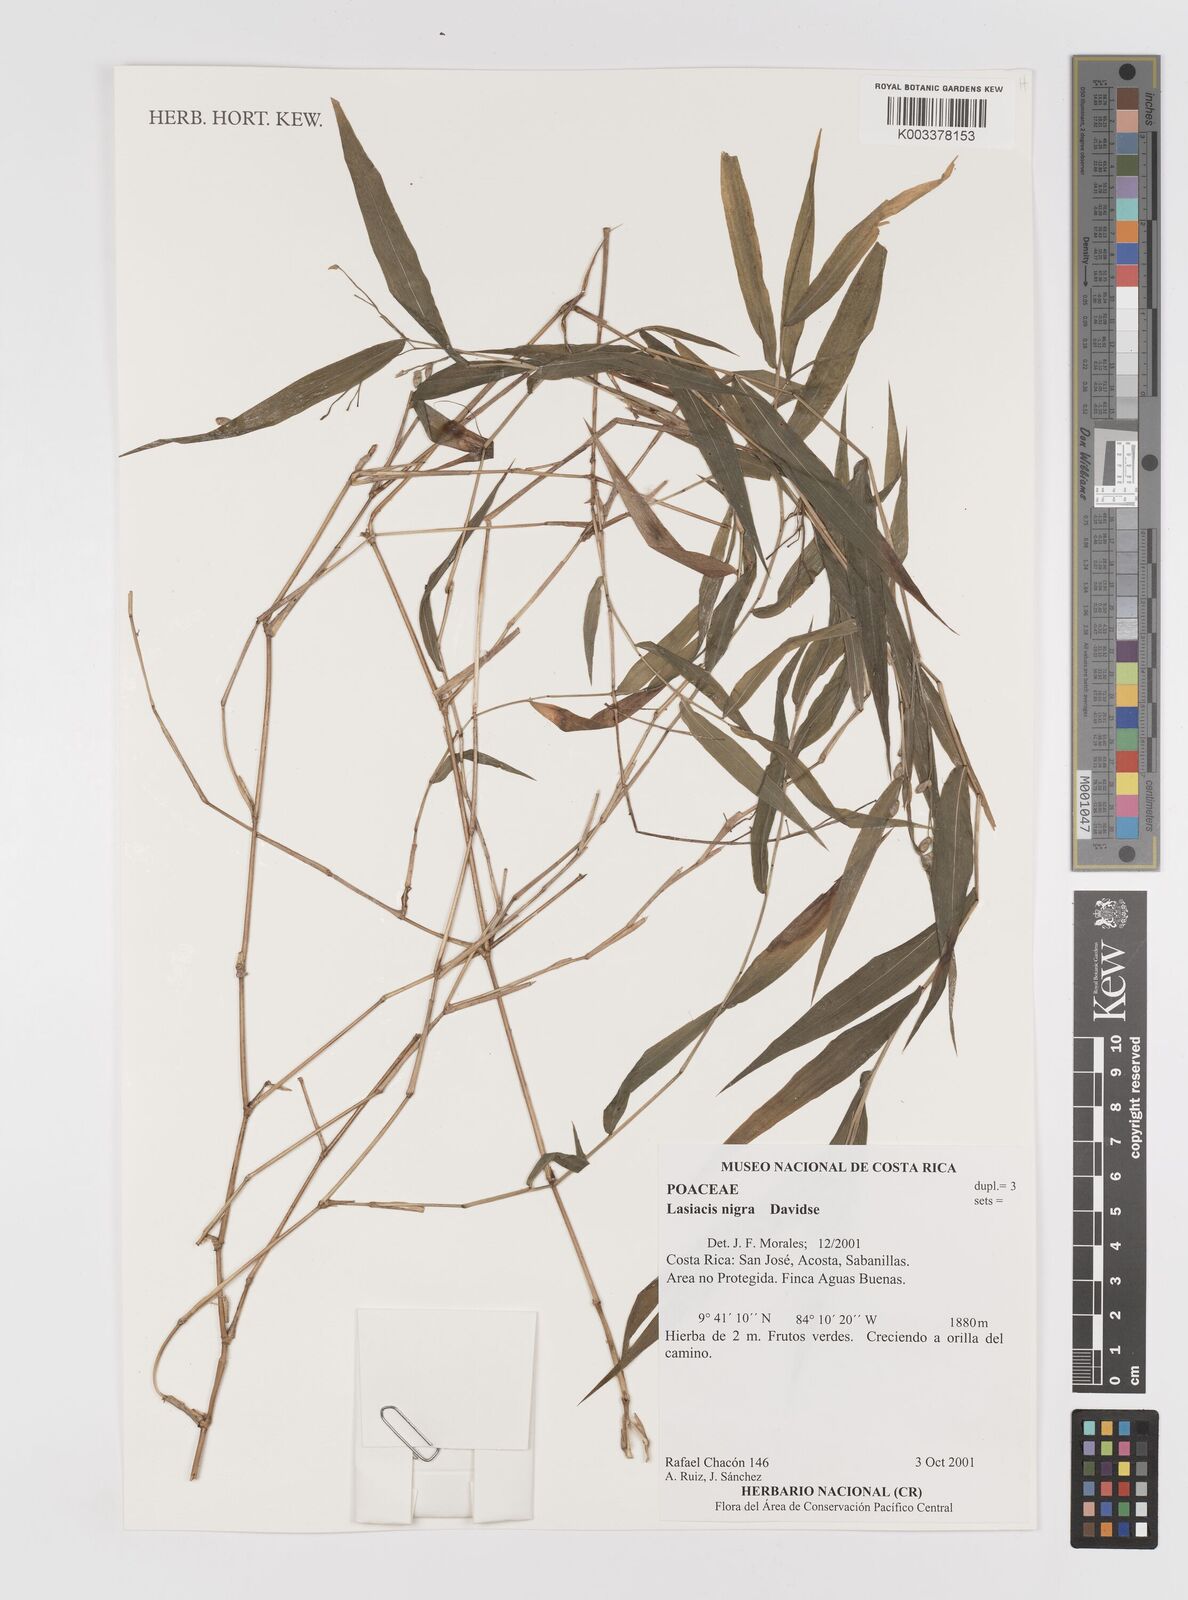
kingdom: Plantae
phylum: Tracheophyta
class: Liliopsida
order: Poales
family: Poaceae
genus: Lasiacis
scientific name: Lasiacis nigra
